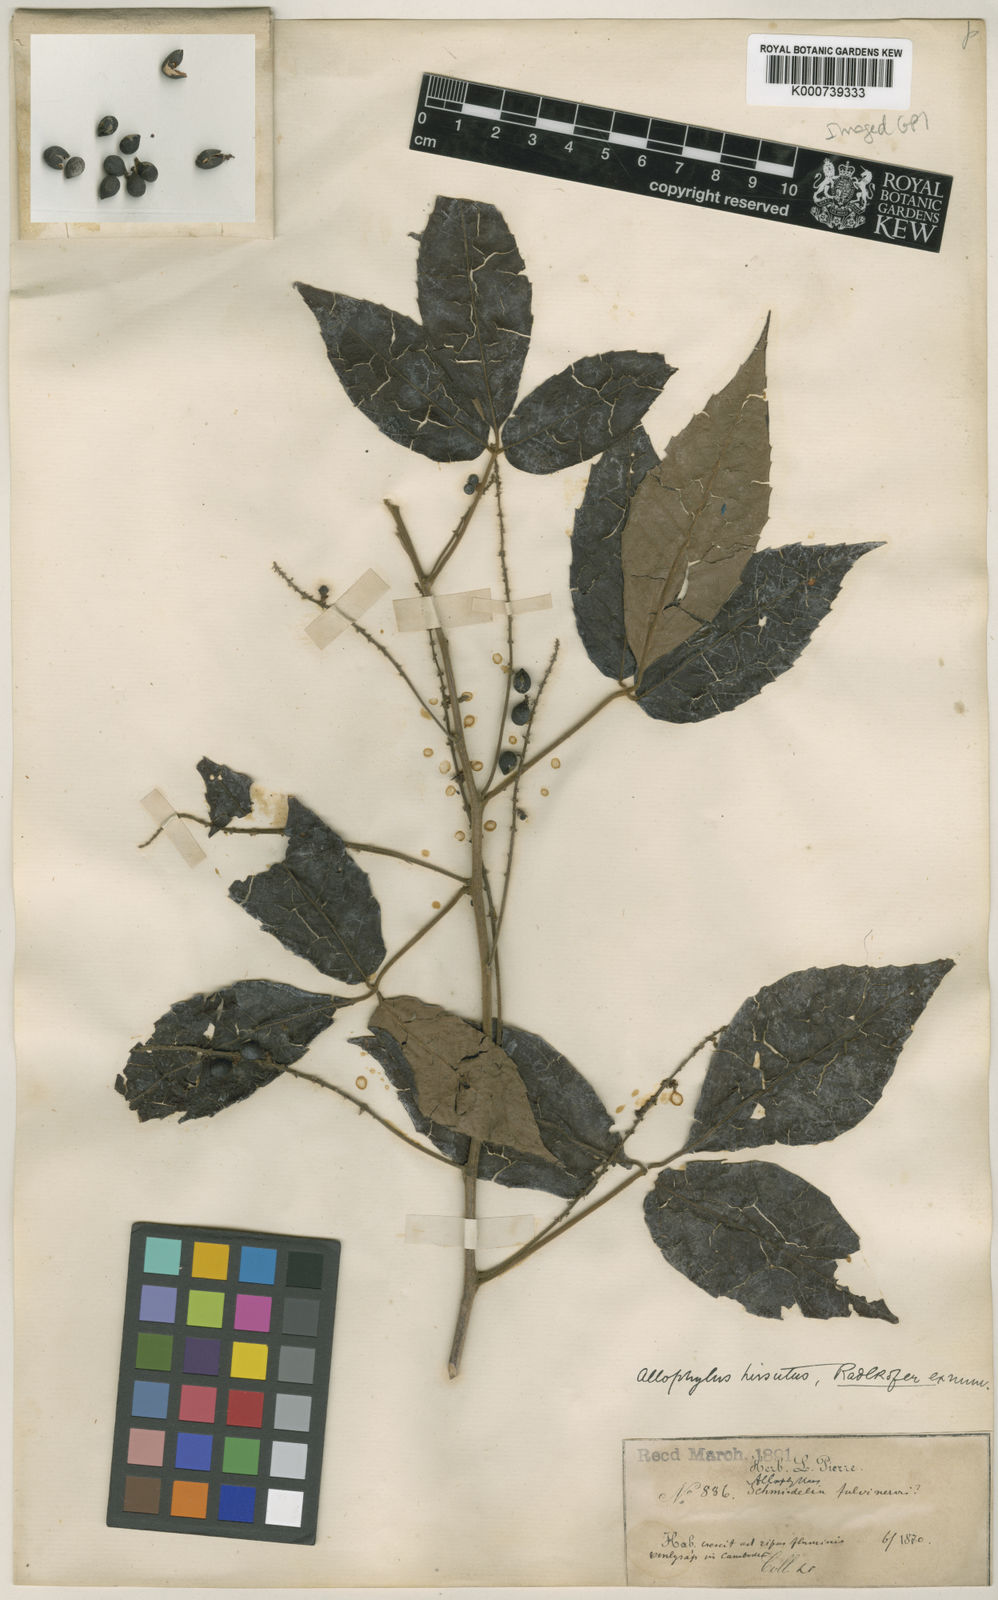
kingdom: Plantae
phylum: Tracheophyta
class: Magnoliopsida
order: Sapindales
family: Sapindaceae
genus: Allophylus
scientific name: Allophylus hirsutus
